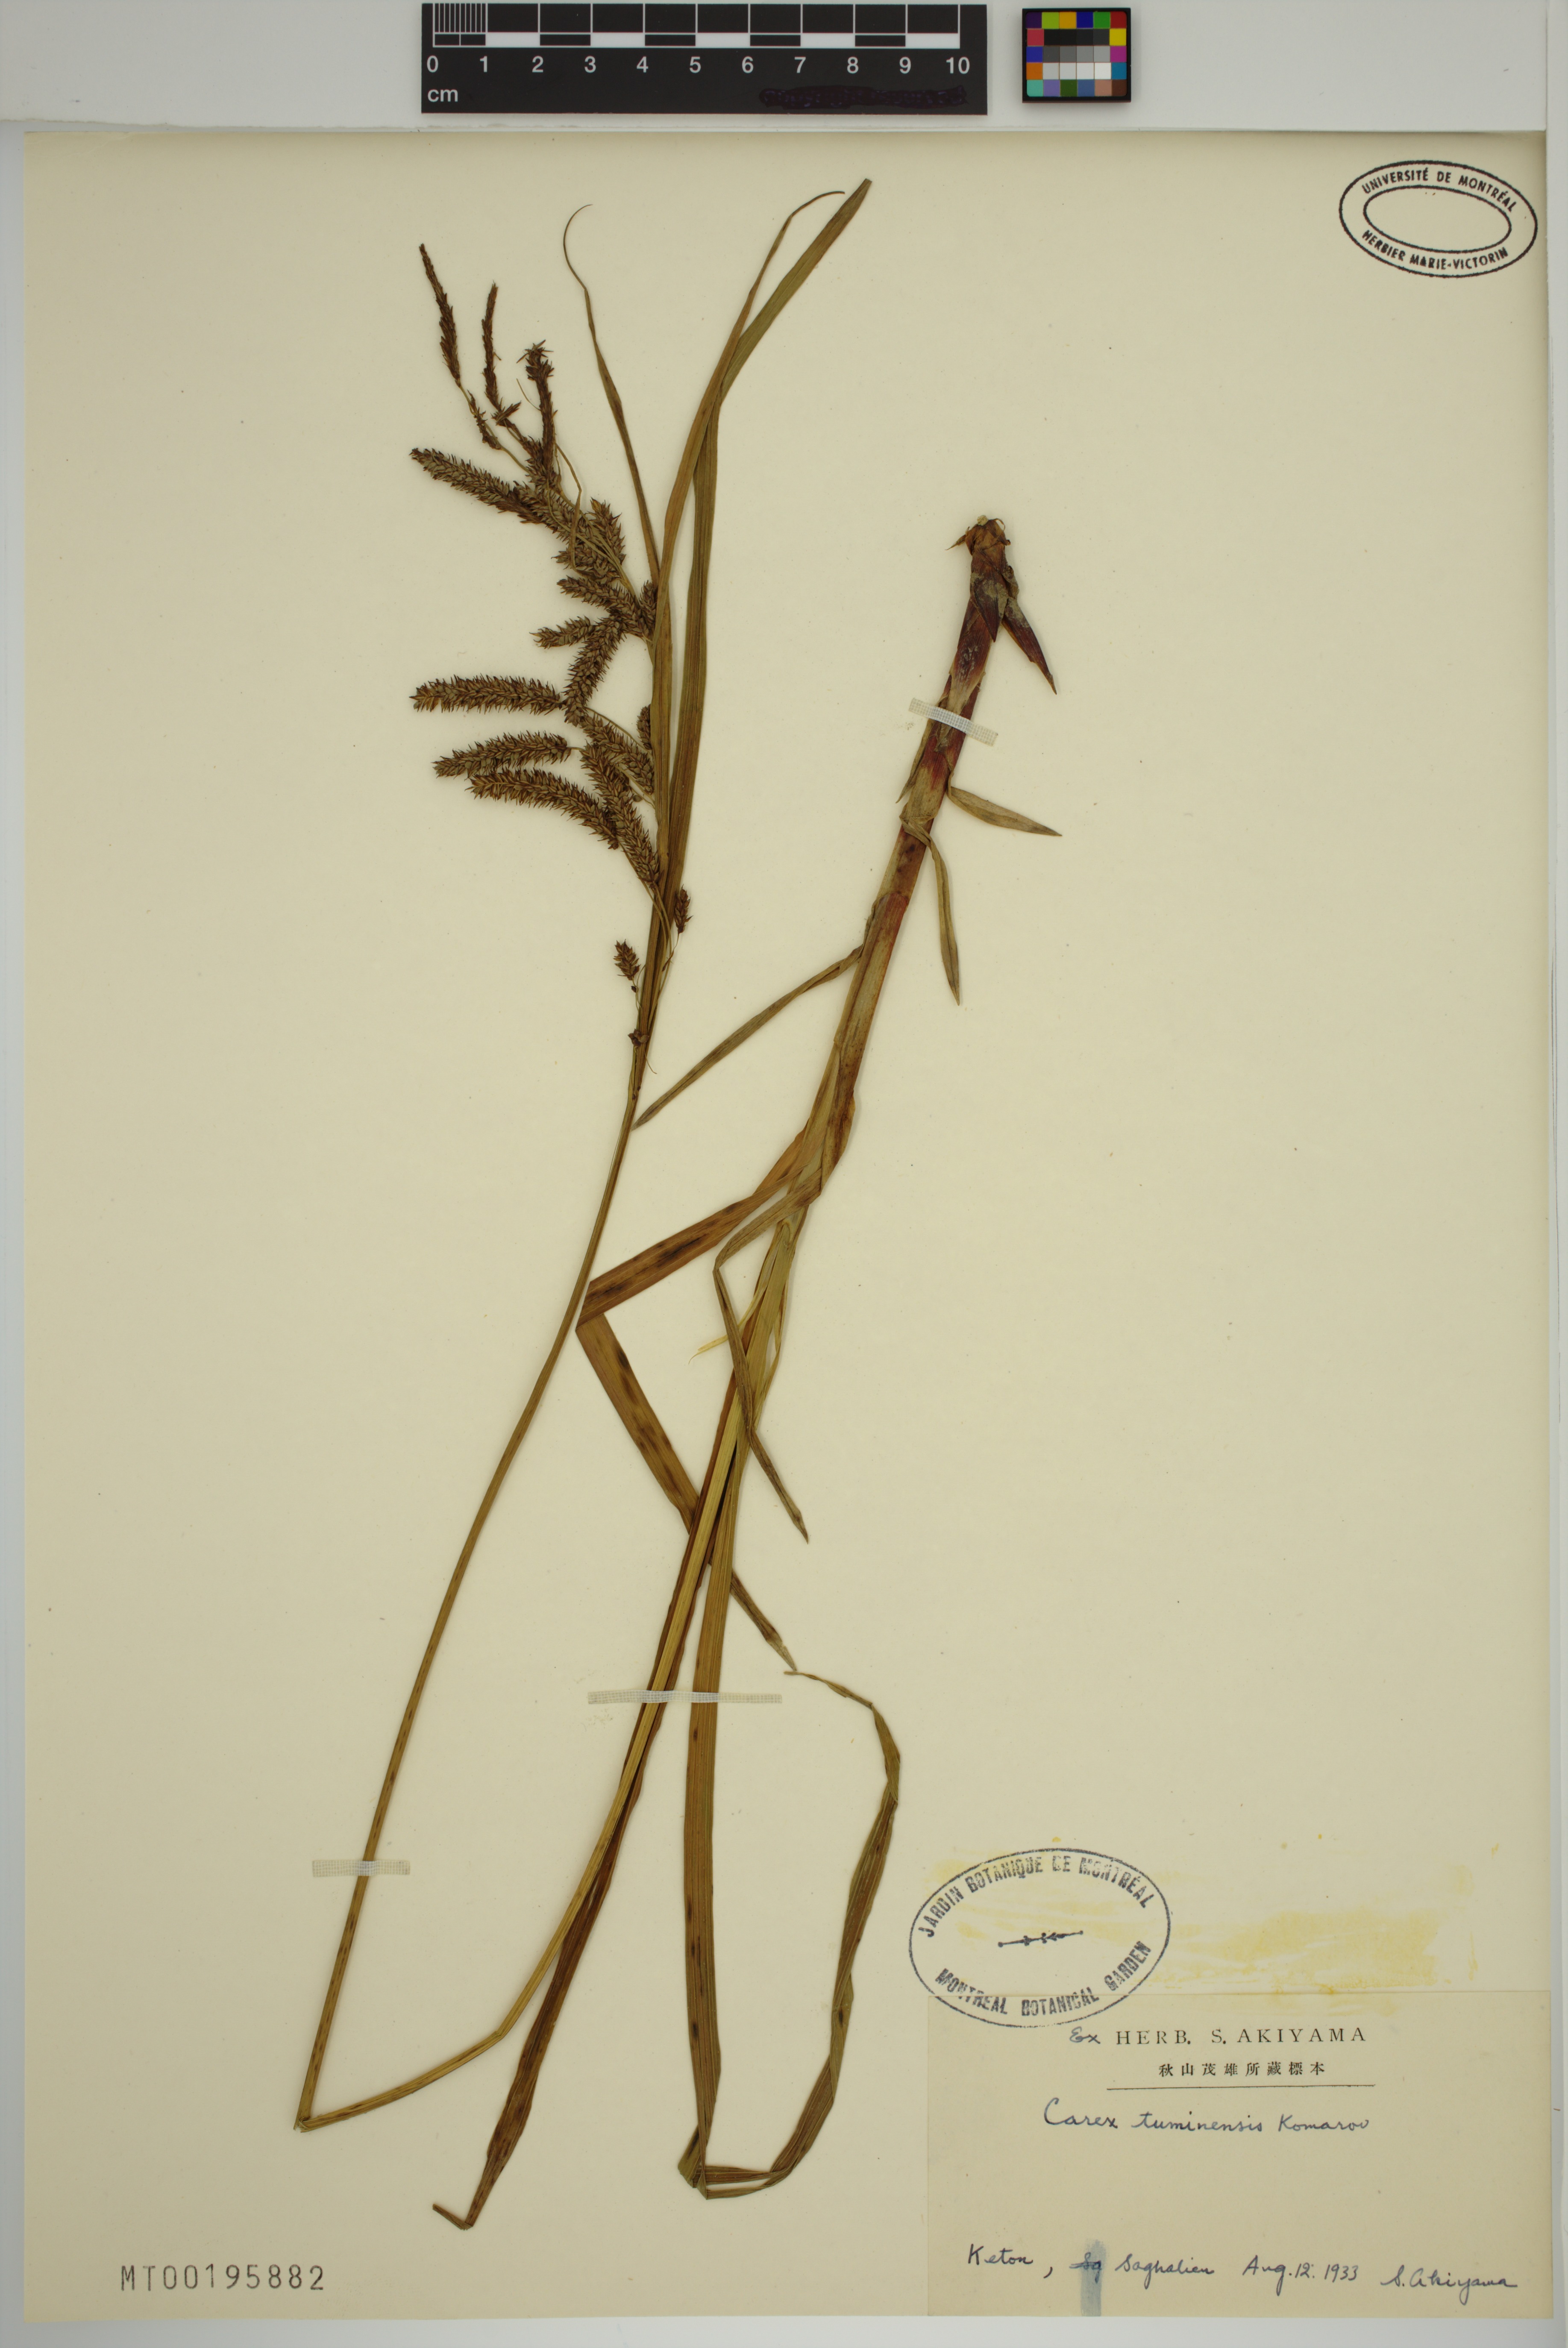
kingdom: Plantae
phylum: Tracheophyta
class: Liliopsida
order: Poales
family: Cyperaceae
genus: Carex
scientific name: Carex tuminensis
